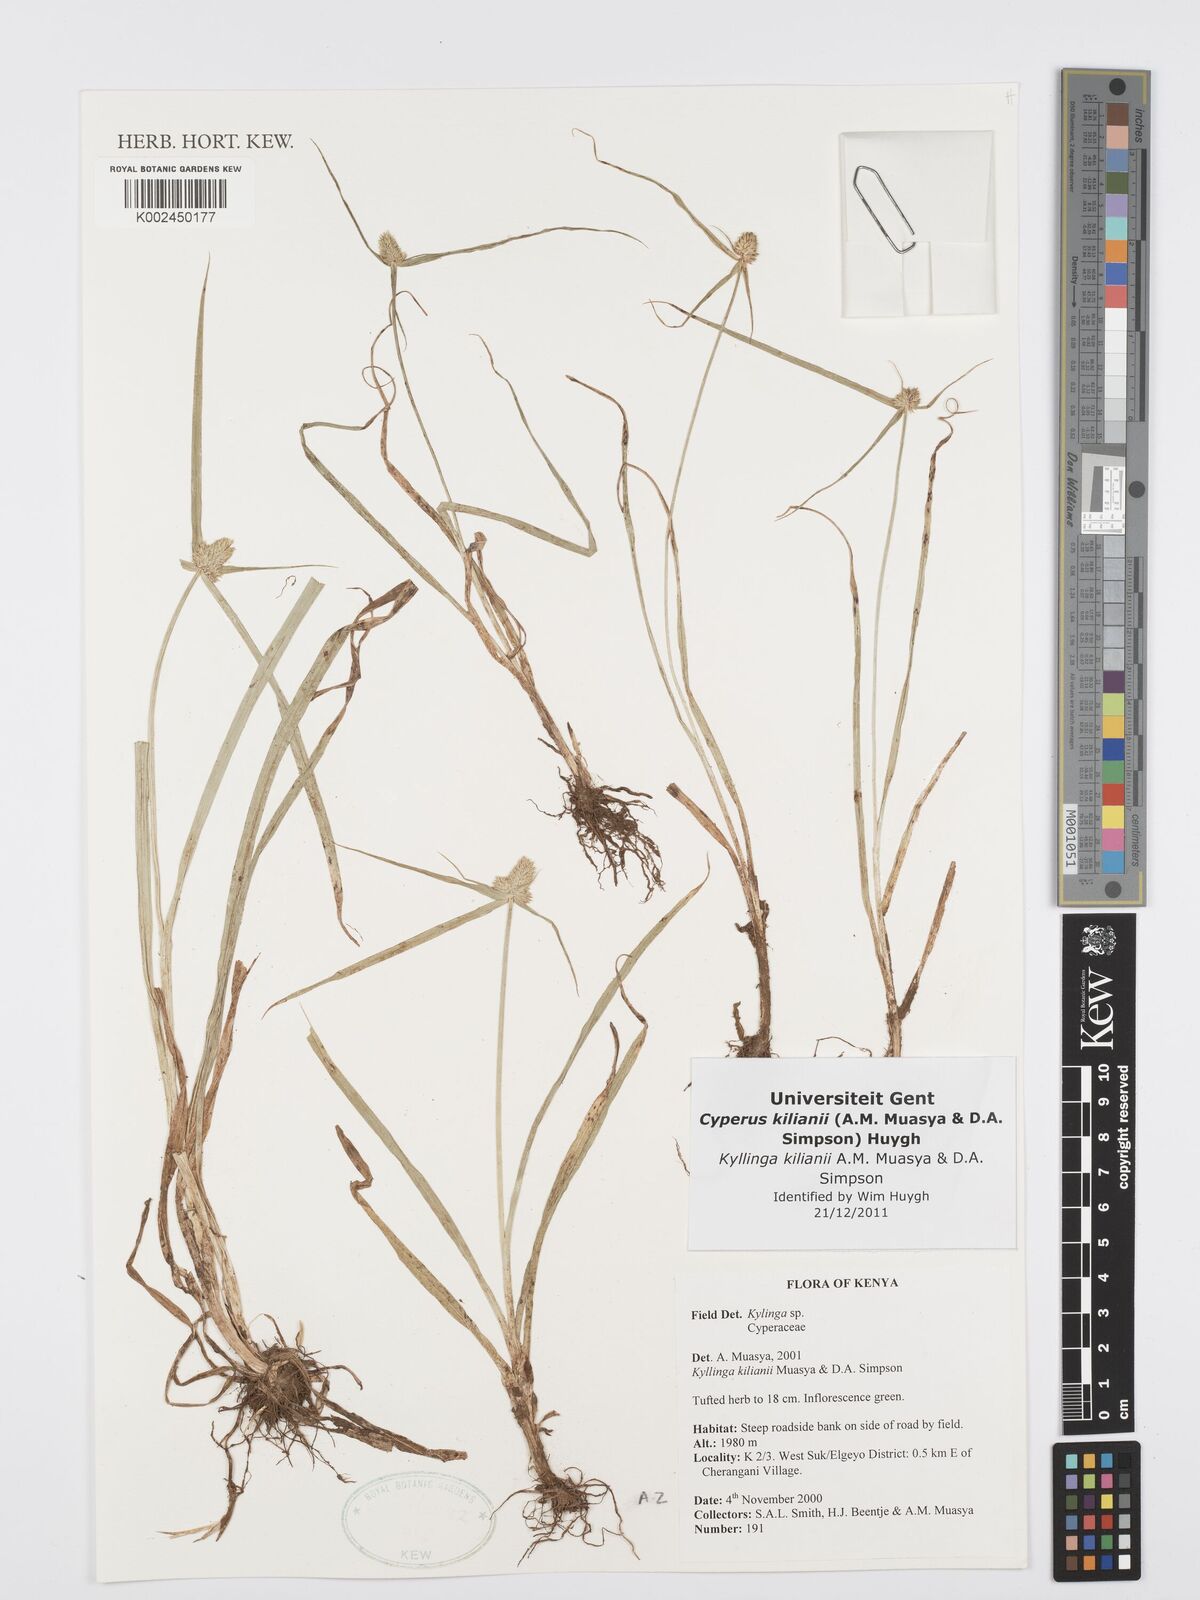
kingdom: Plantae
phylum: Tracheophyta
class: Liliopsida
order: Poales
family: Cyperaceae
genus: Cyperus
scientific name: Cyperus kilianii
